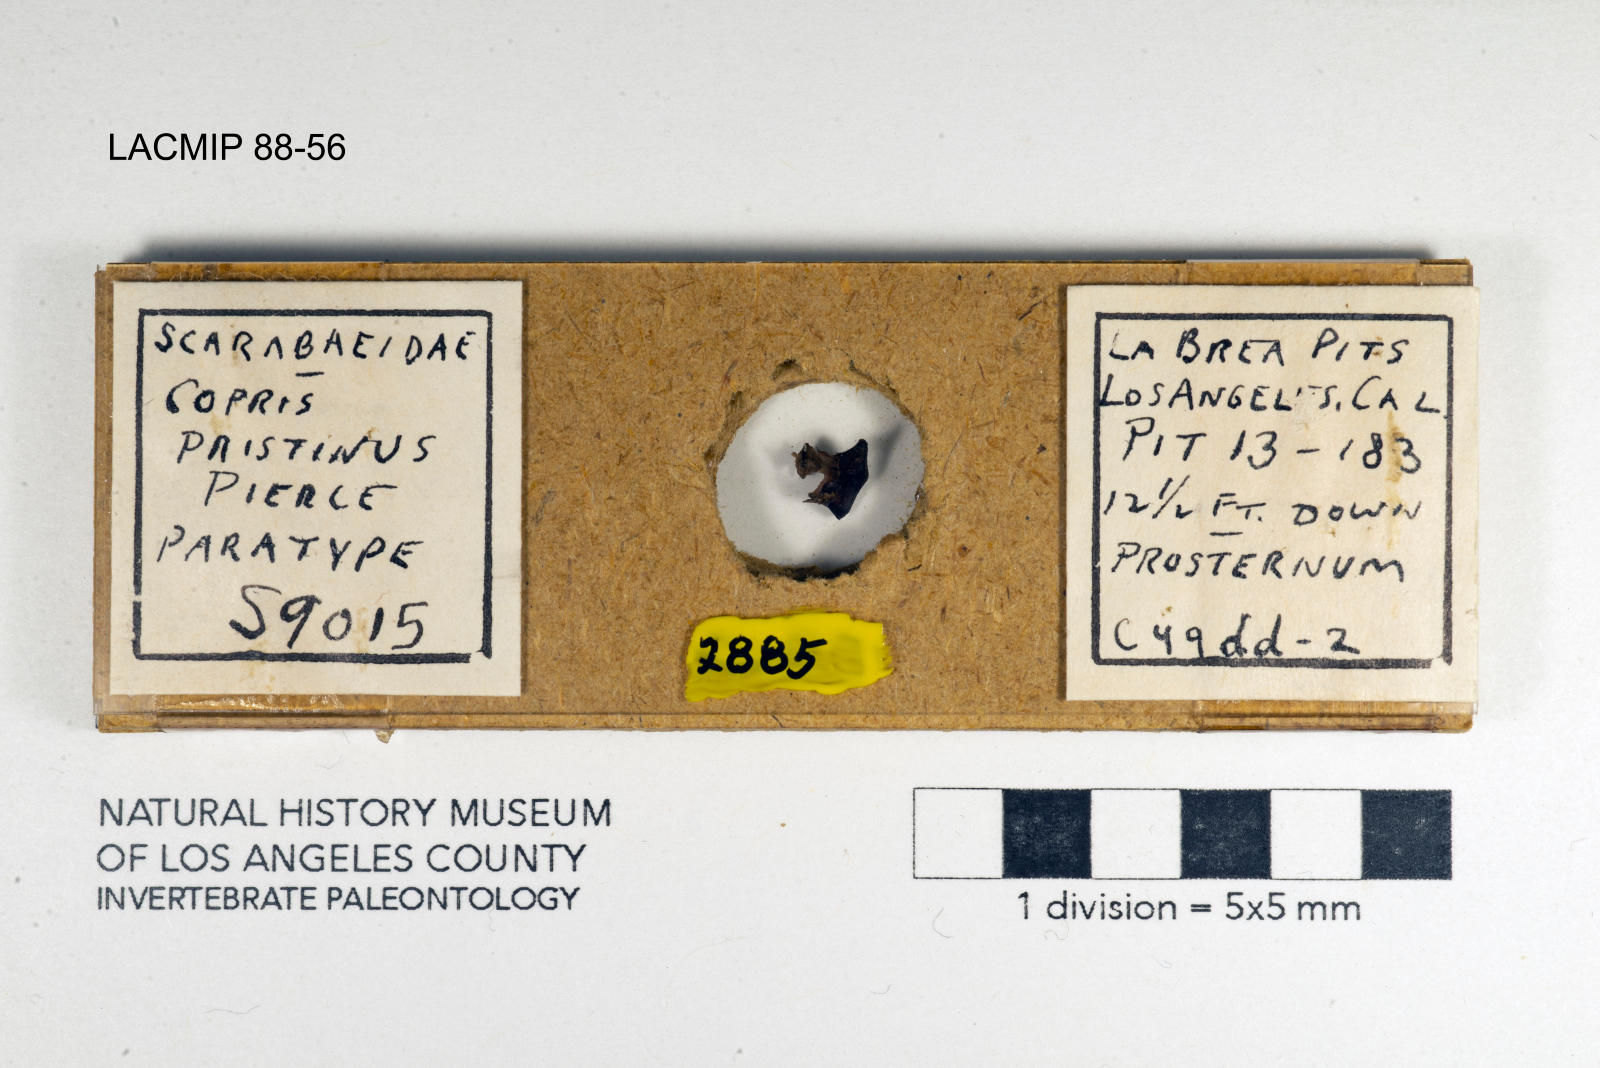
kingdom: Animalia
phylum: Arthropoda
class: Insecta
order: Coleoptera
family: Scarabaeidae
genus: Copris
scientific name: Copris pristinus
